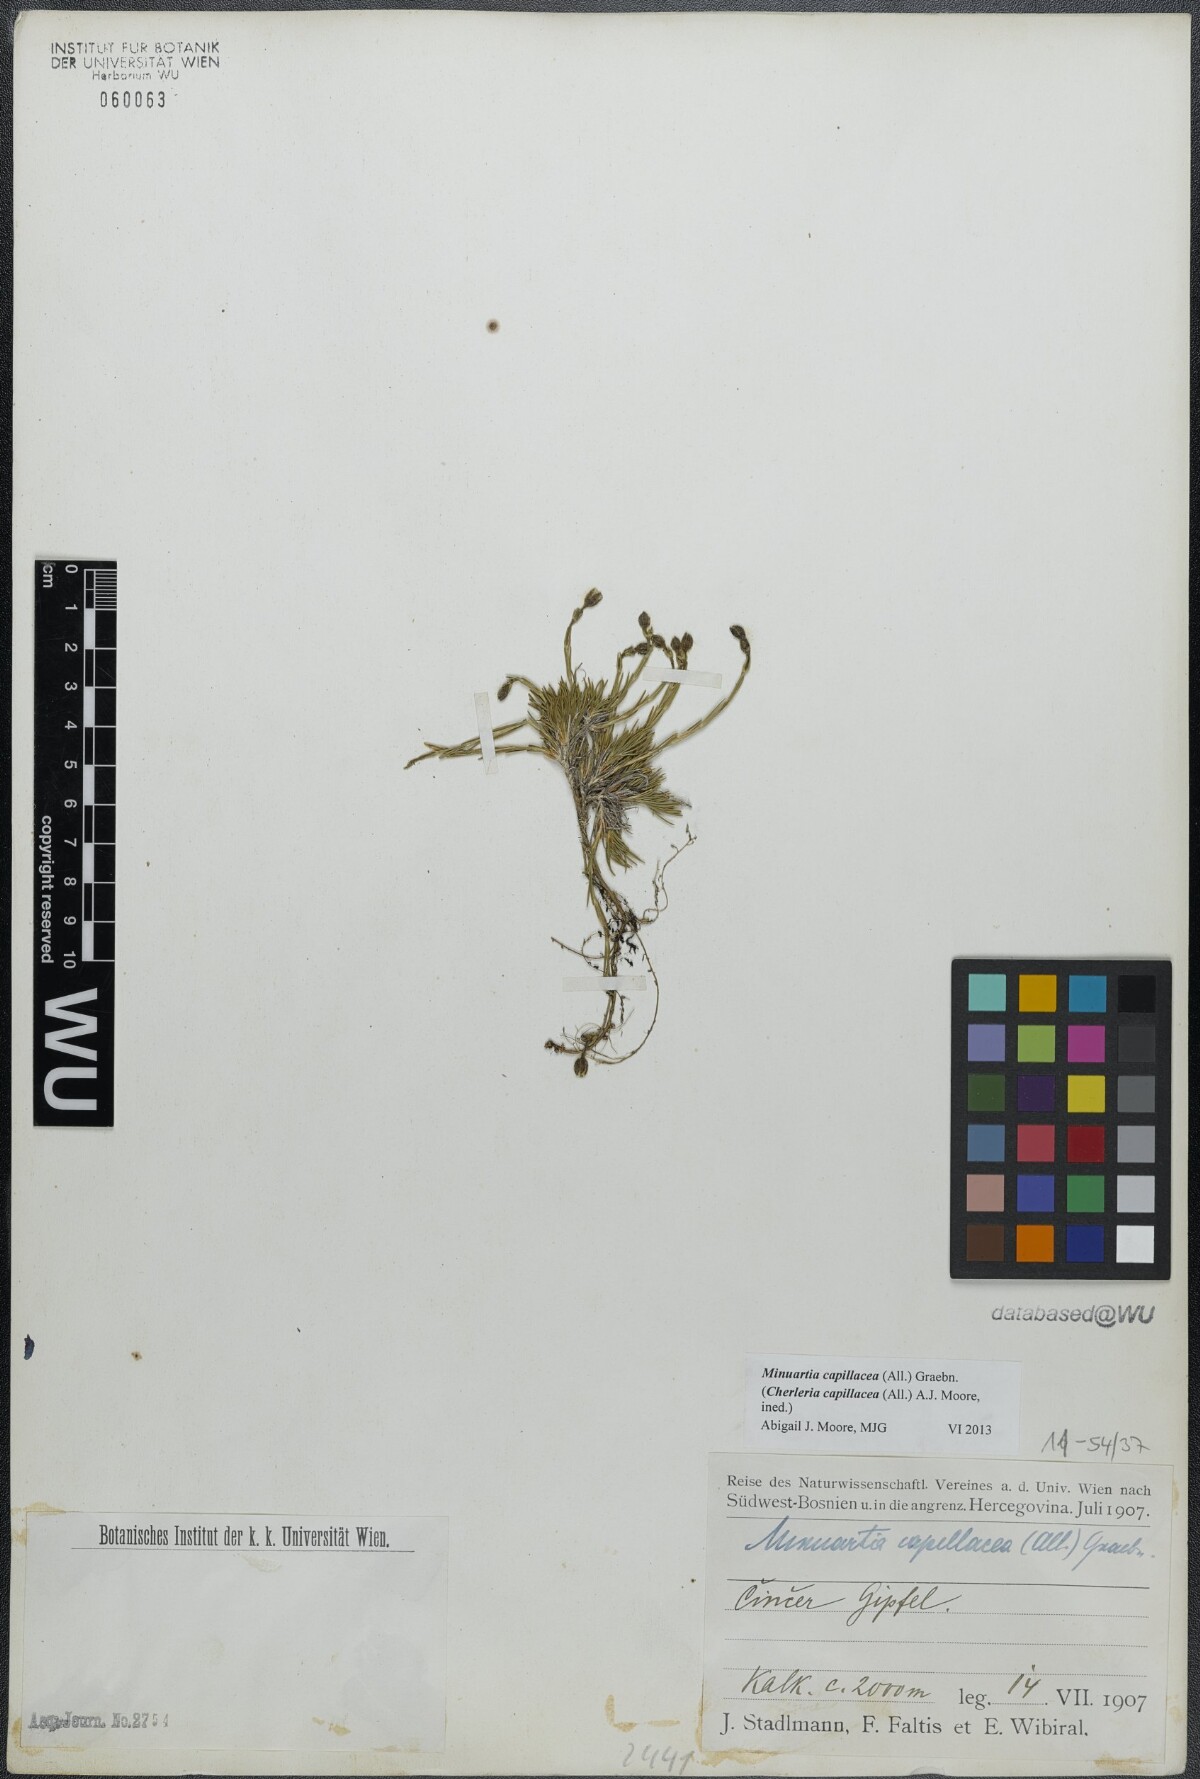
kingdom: Plantae
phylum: Tracheophyta
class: Magnoliopsida
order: Caryophyllales
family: Caryophyllaceae
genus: Cherleria
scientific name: Cherleria capillacea
